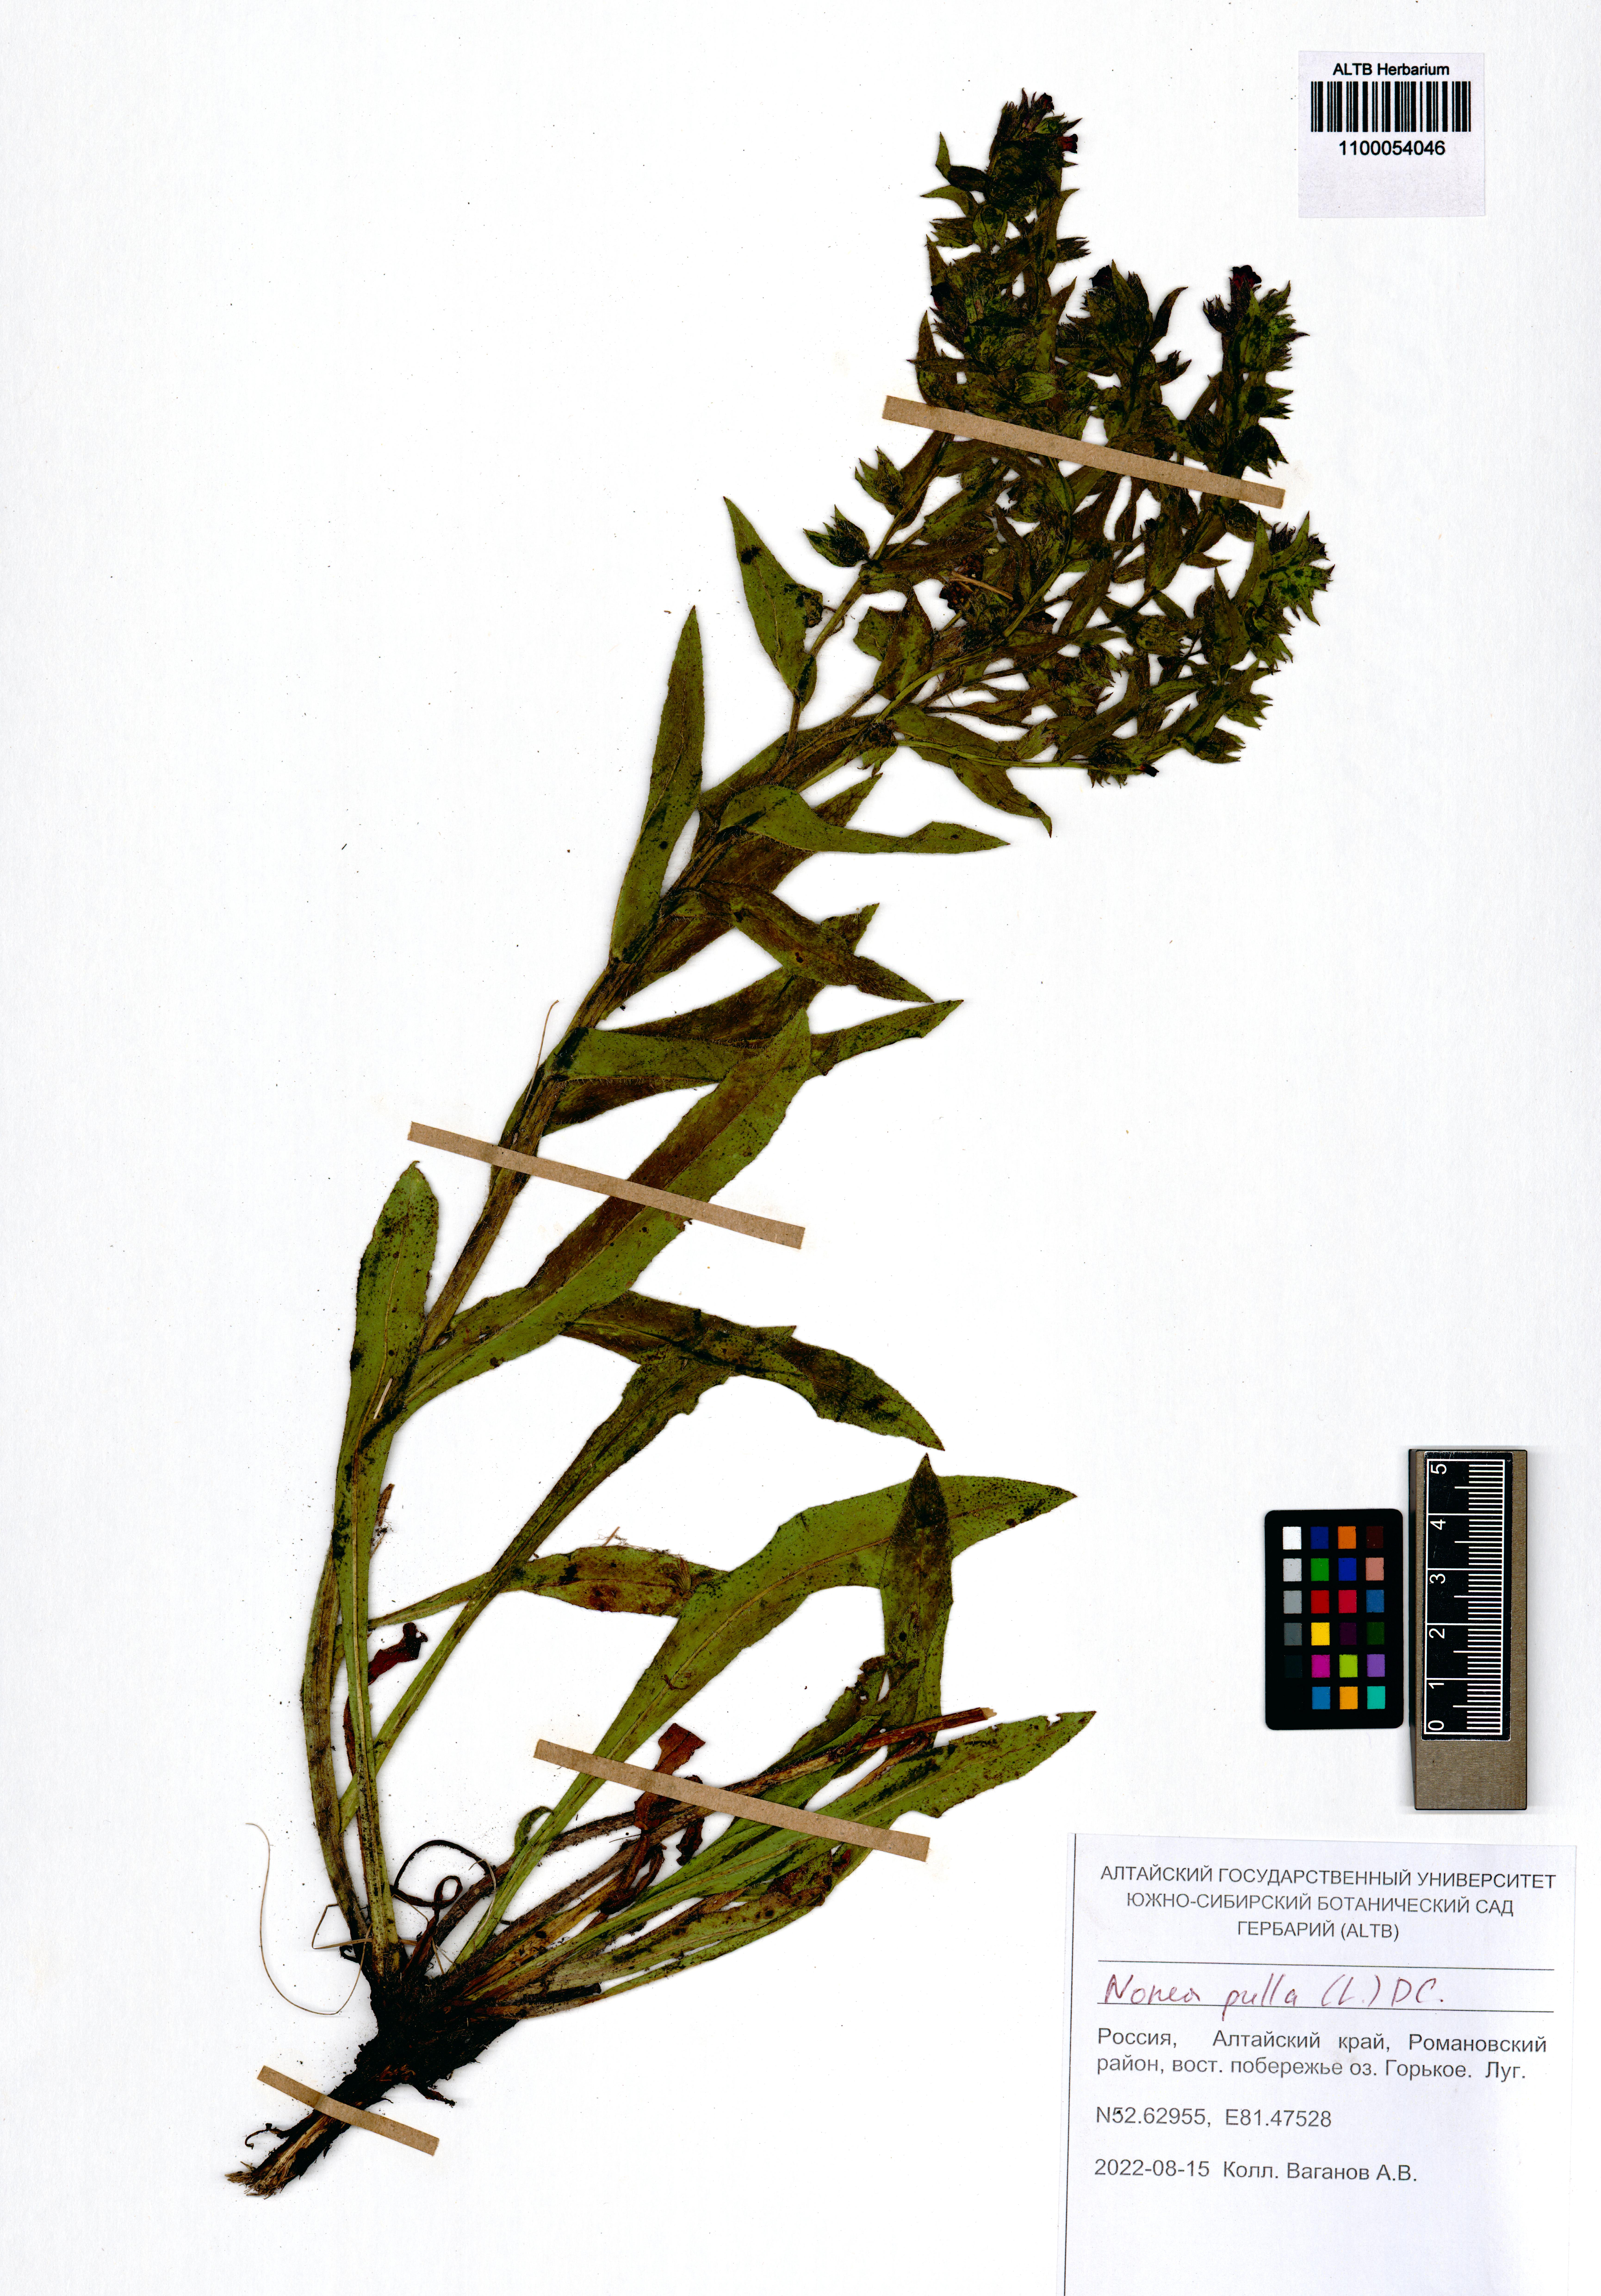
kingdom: Plantae
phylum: Tracheophyta
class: Magnoliopsida
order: Boraginales
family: Boraginaceae
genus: Nonea
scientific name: Nonea pulla
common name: Brown nonea
